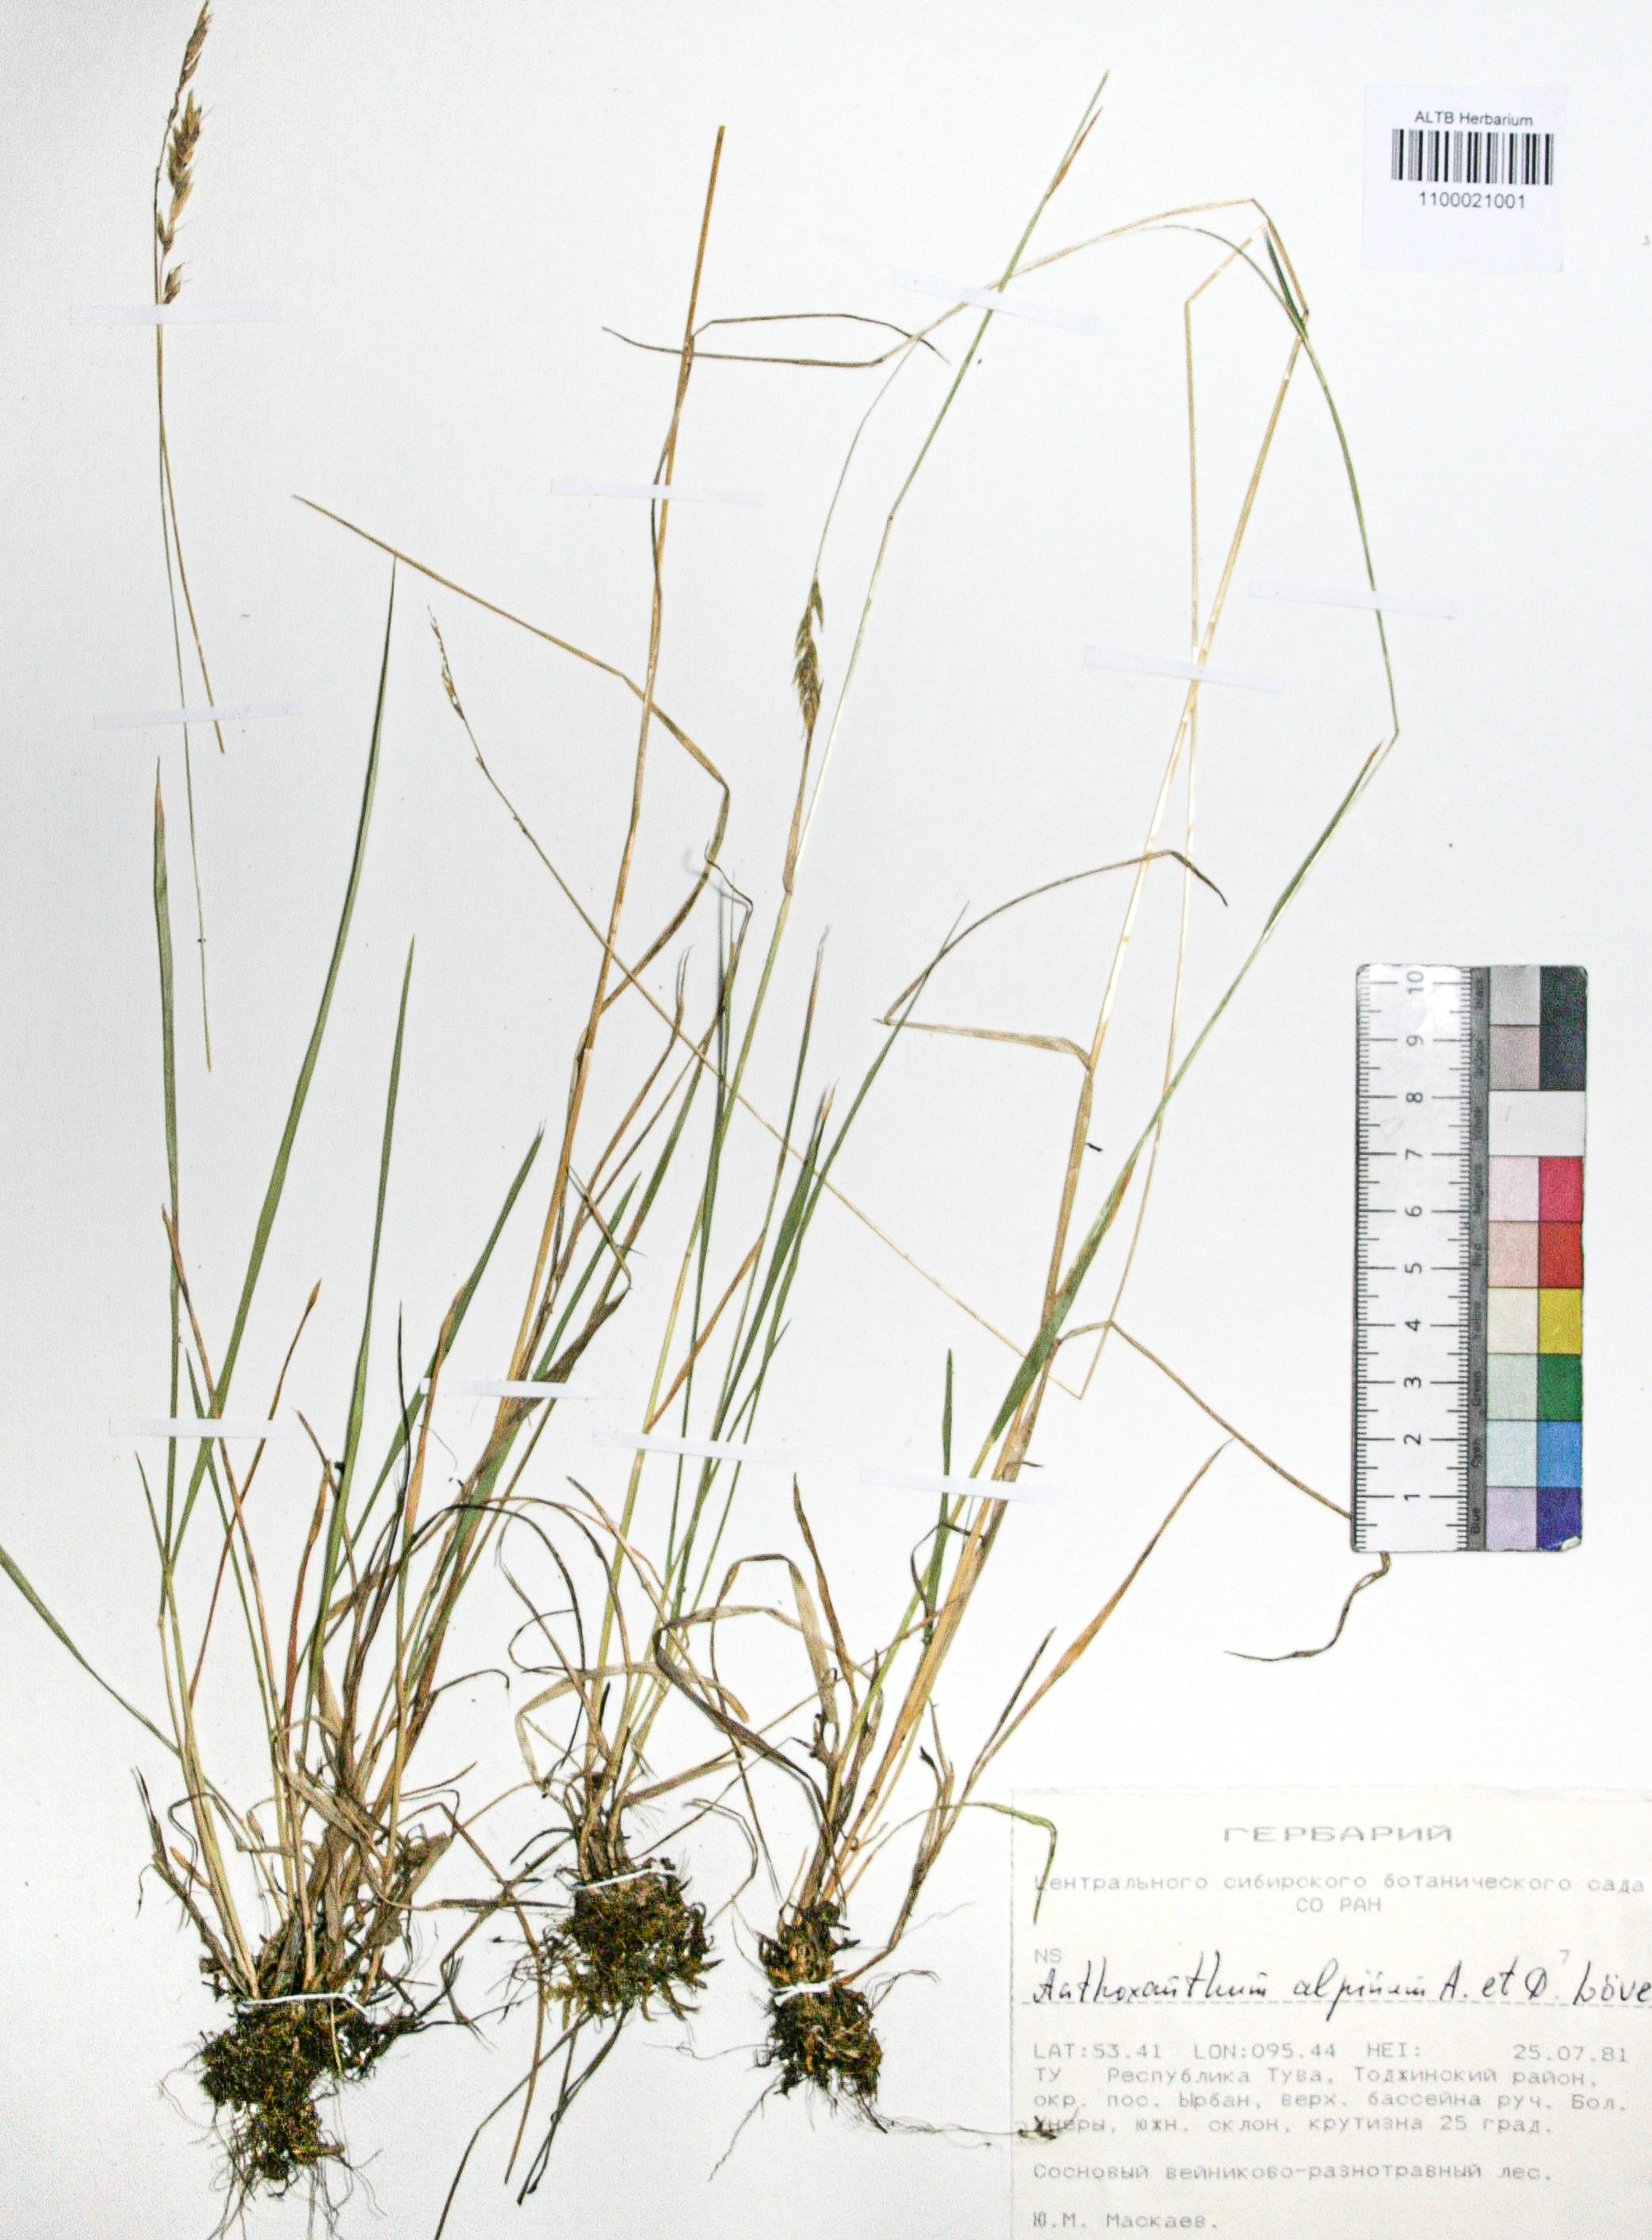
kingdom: Plantae
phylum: Tracheophyta
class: Liliopsida
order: Poales
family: Poaceae
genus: Anthoxanthum
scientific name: Anthoxanthum nipponicum
